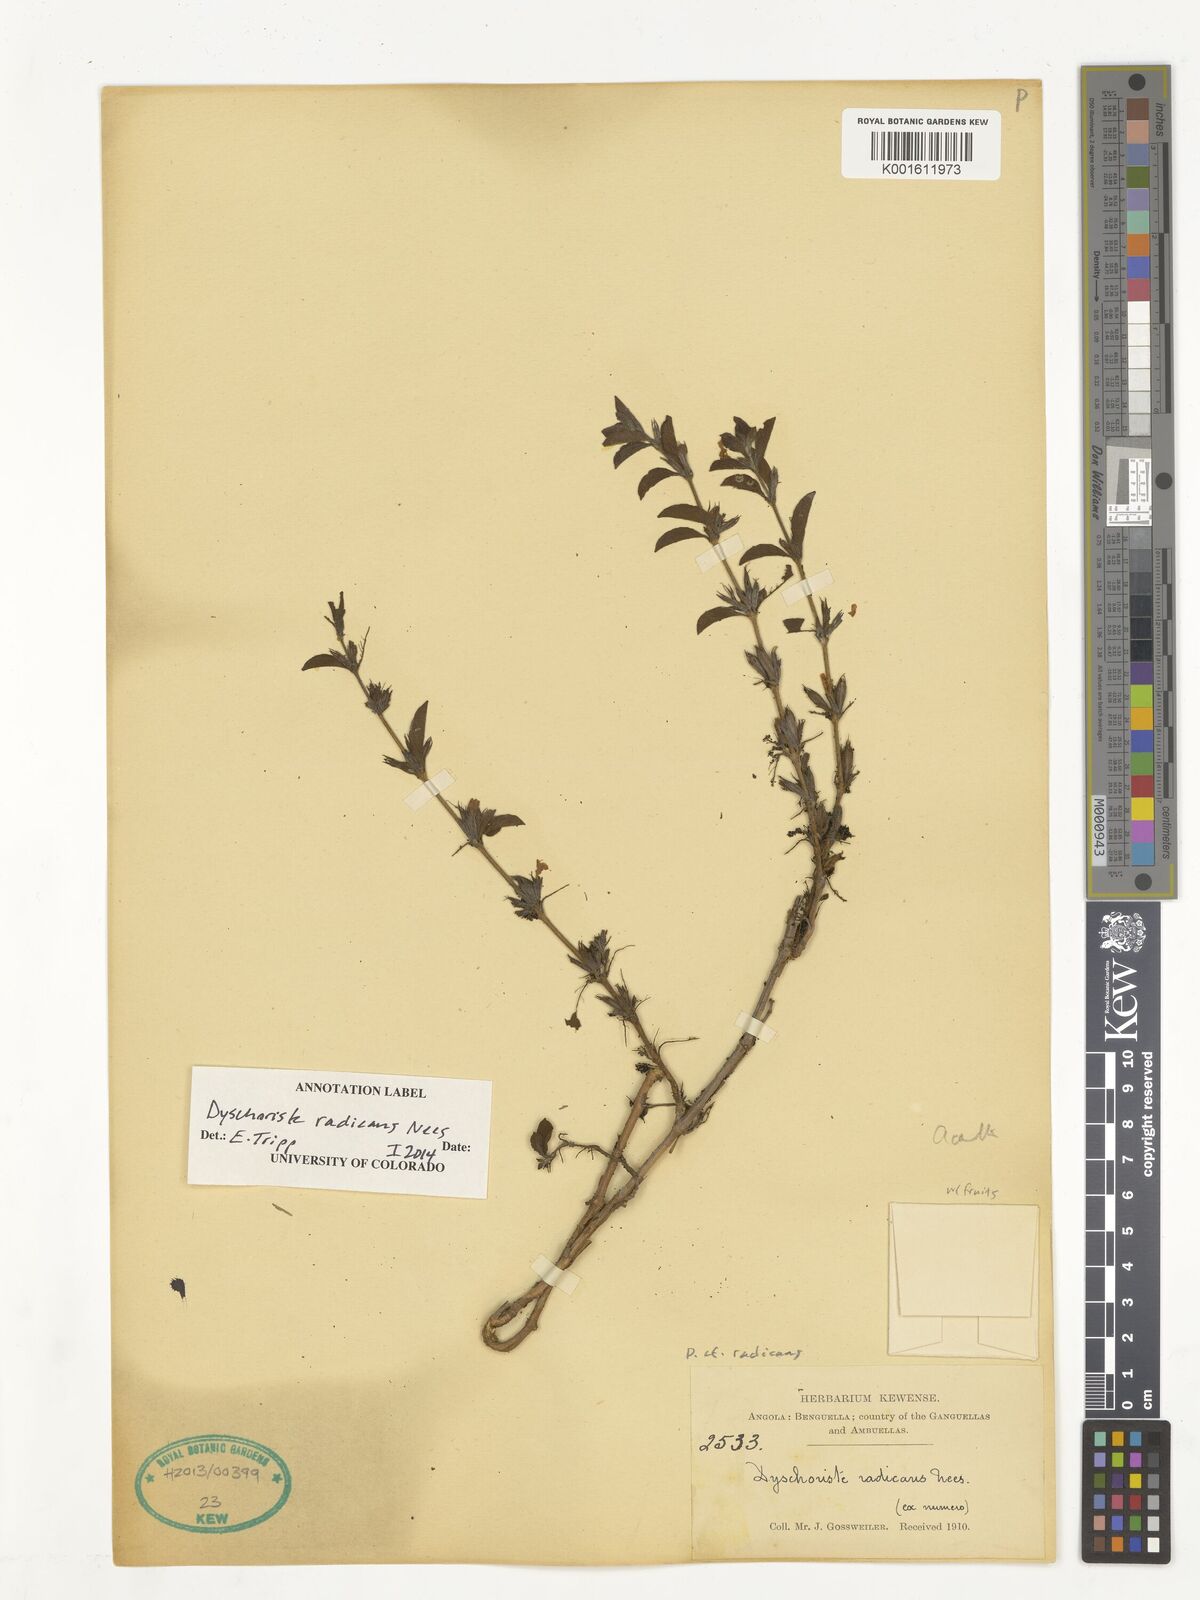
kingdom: Plantae
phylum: Tracheophyta
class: Magnoliopsida
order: Lamiales
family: Acanthaceae
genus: Dyschoriste
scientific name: Dyschoriste radicans
